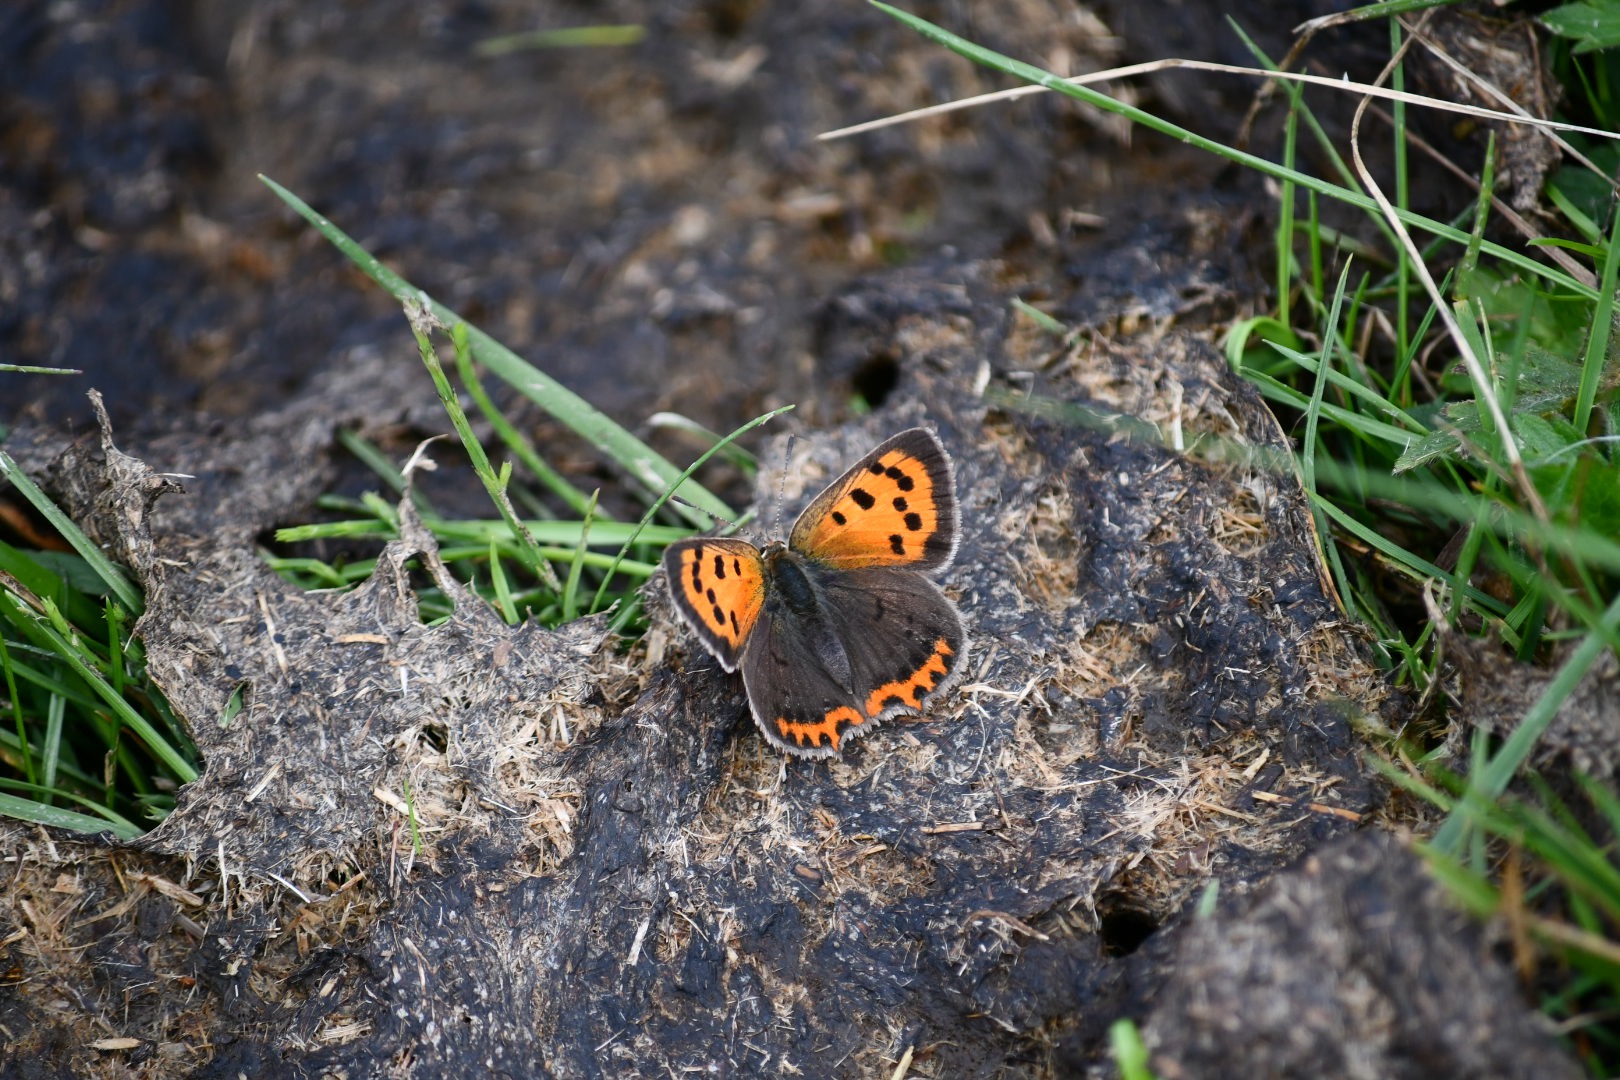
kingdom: Animalia
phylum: Arthropoda
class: Insecta
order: Lepidoptera
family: Lycaenidae
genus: Lycaena
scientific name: Lycaena phlaeas
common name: Lille ildfugl
